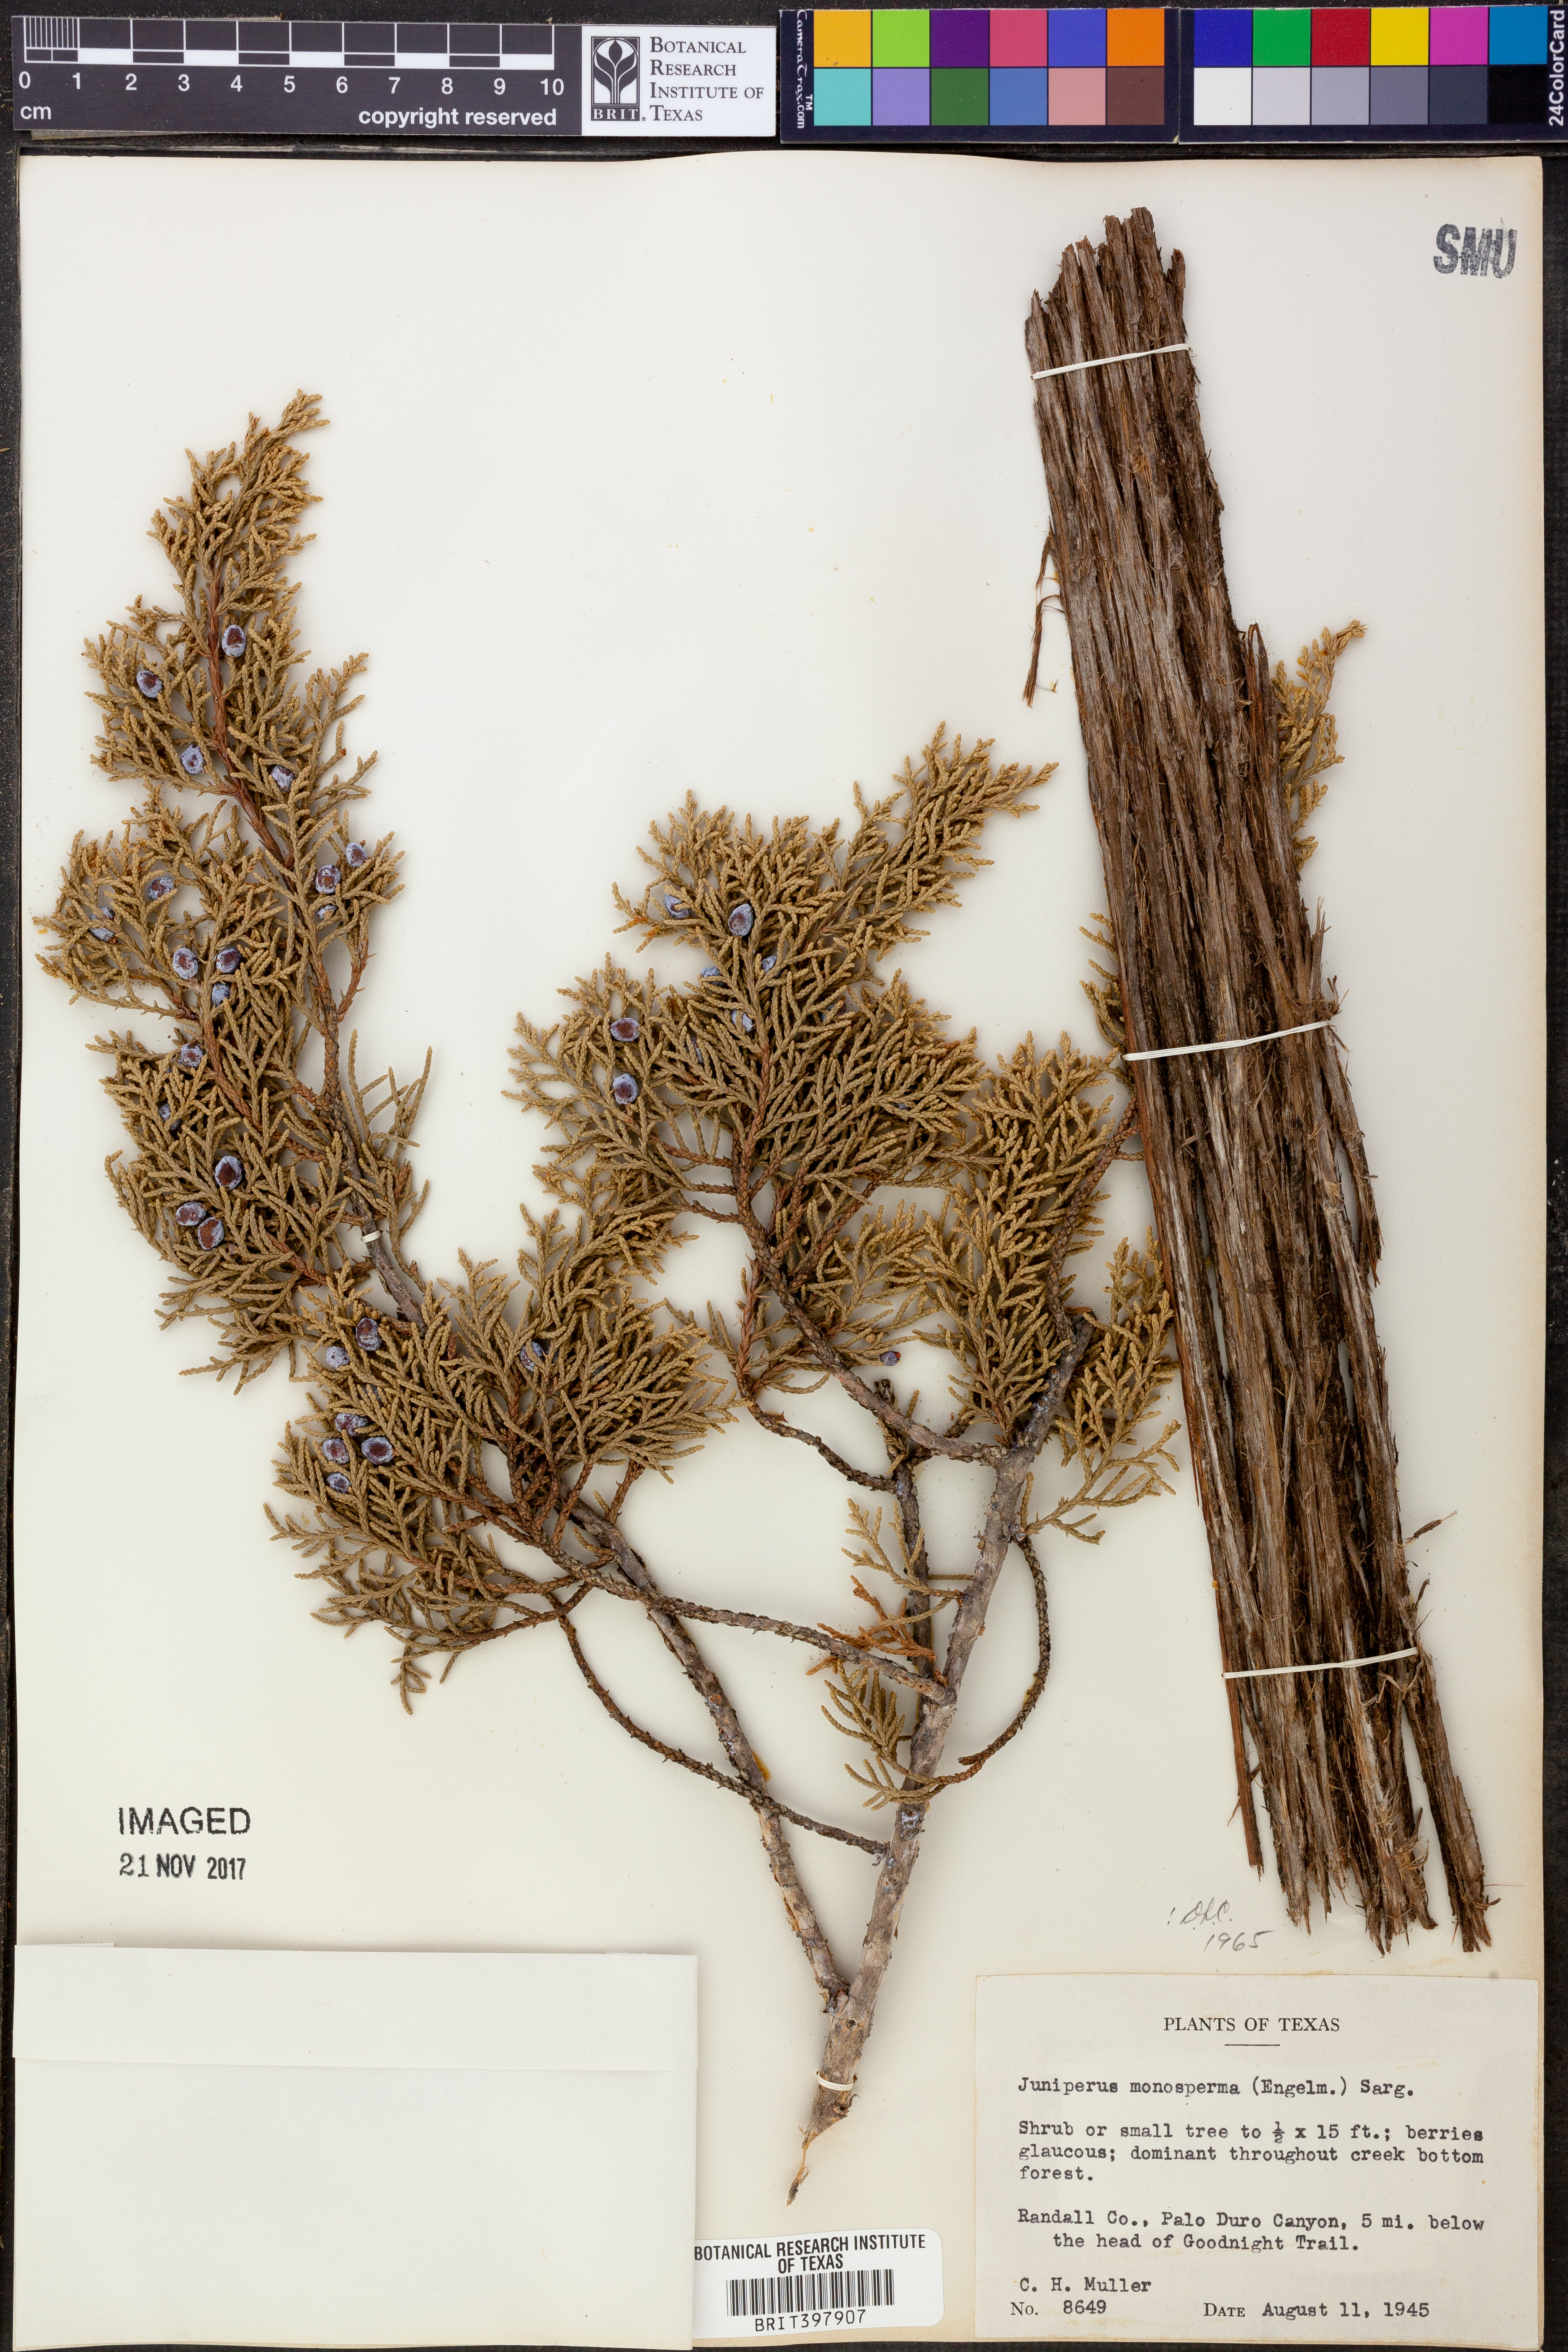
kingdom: Plantae
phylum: Tracheophyta
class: Pinopsida
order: Pinales
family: Cupressaceae
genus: Juniperus
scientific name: Juniperus monosperma
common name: One-seed juniper
